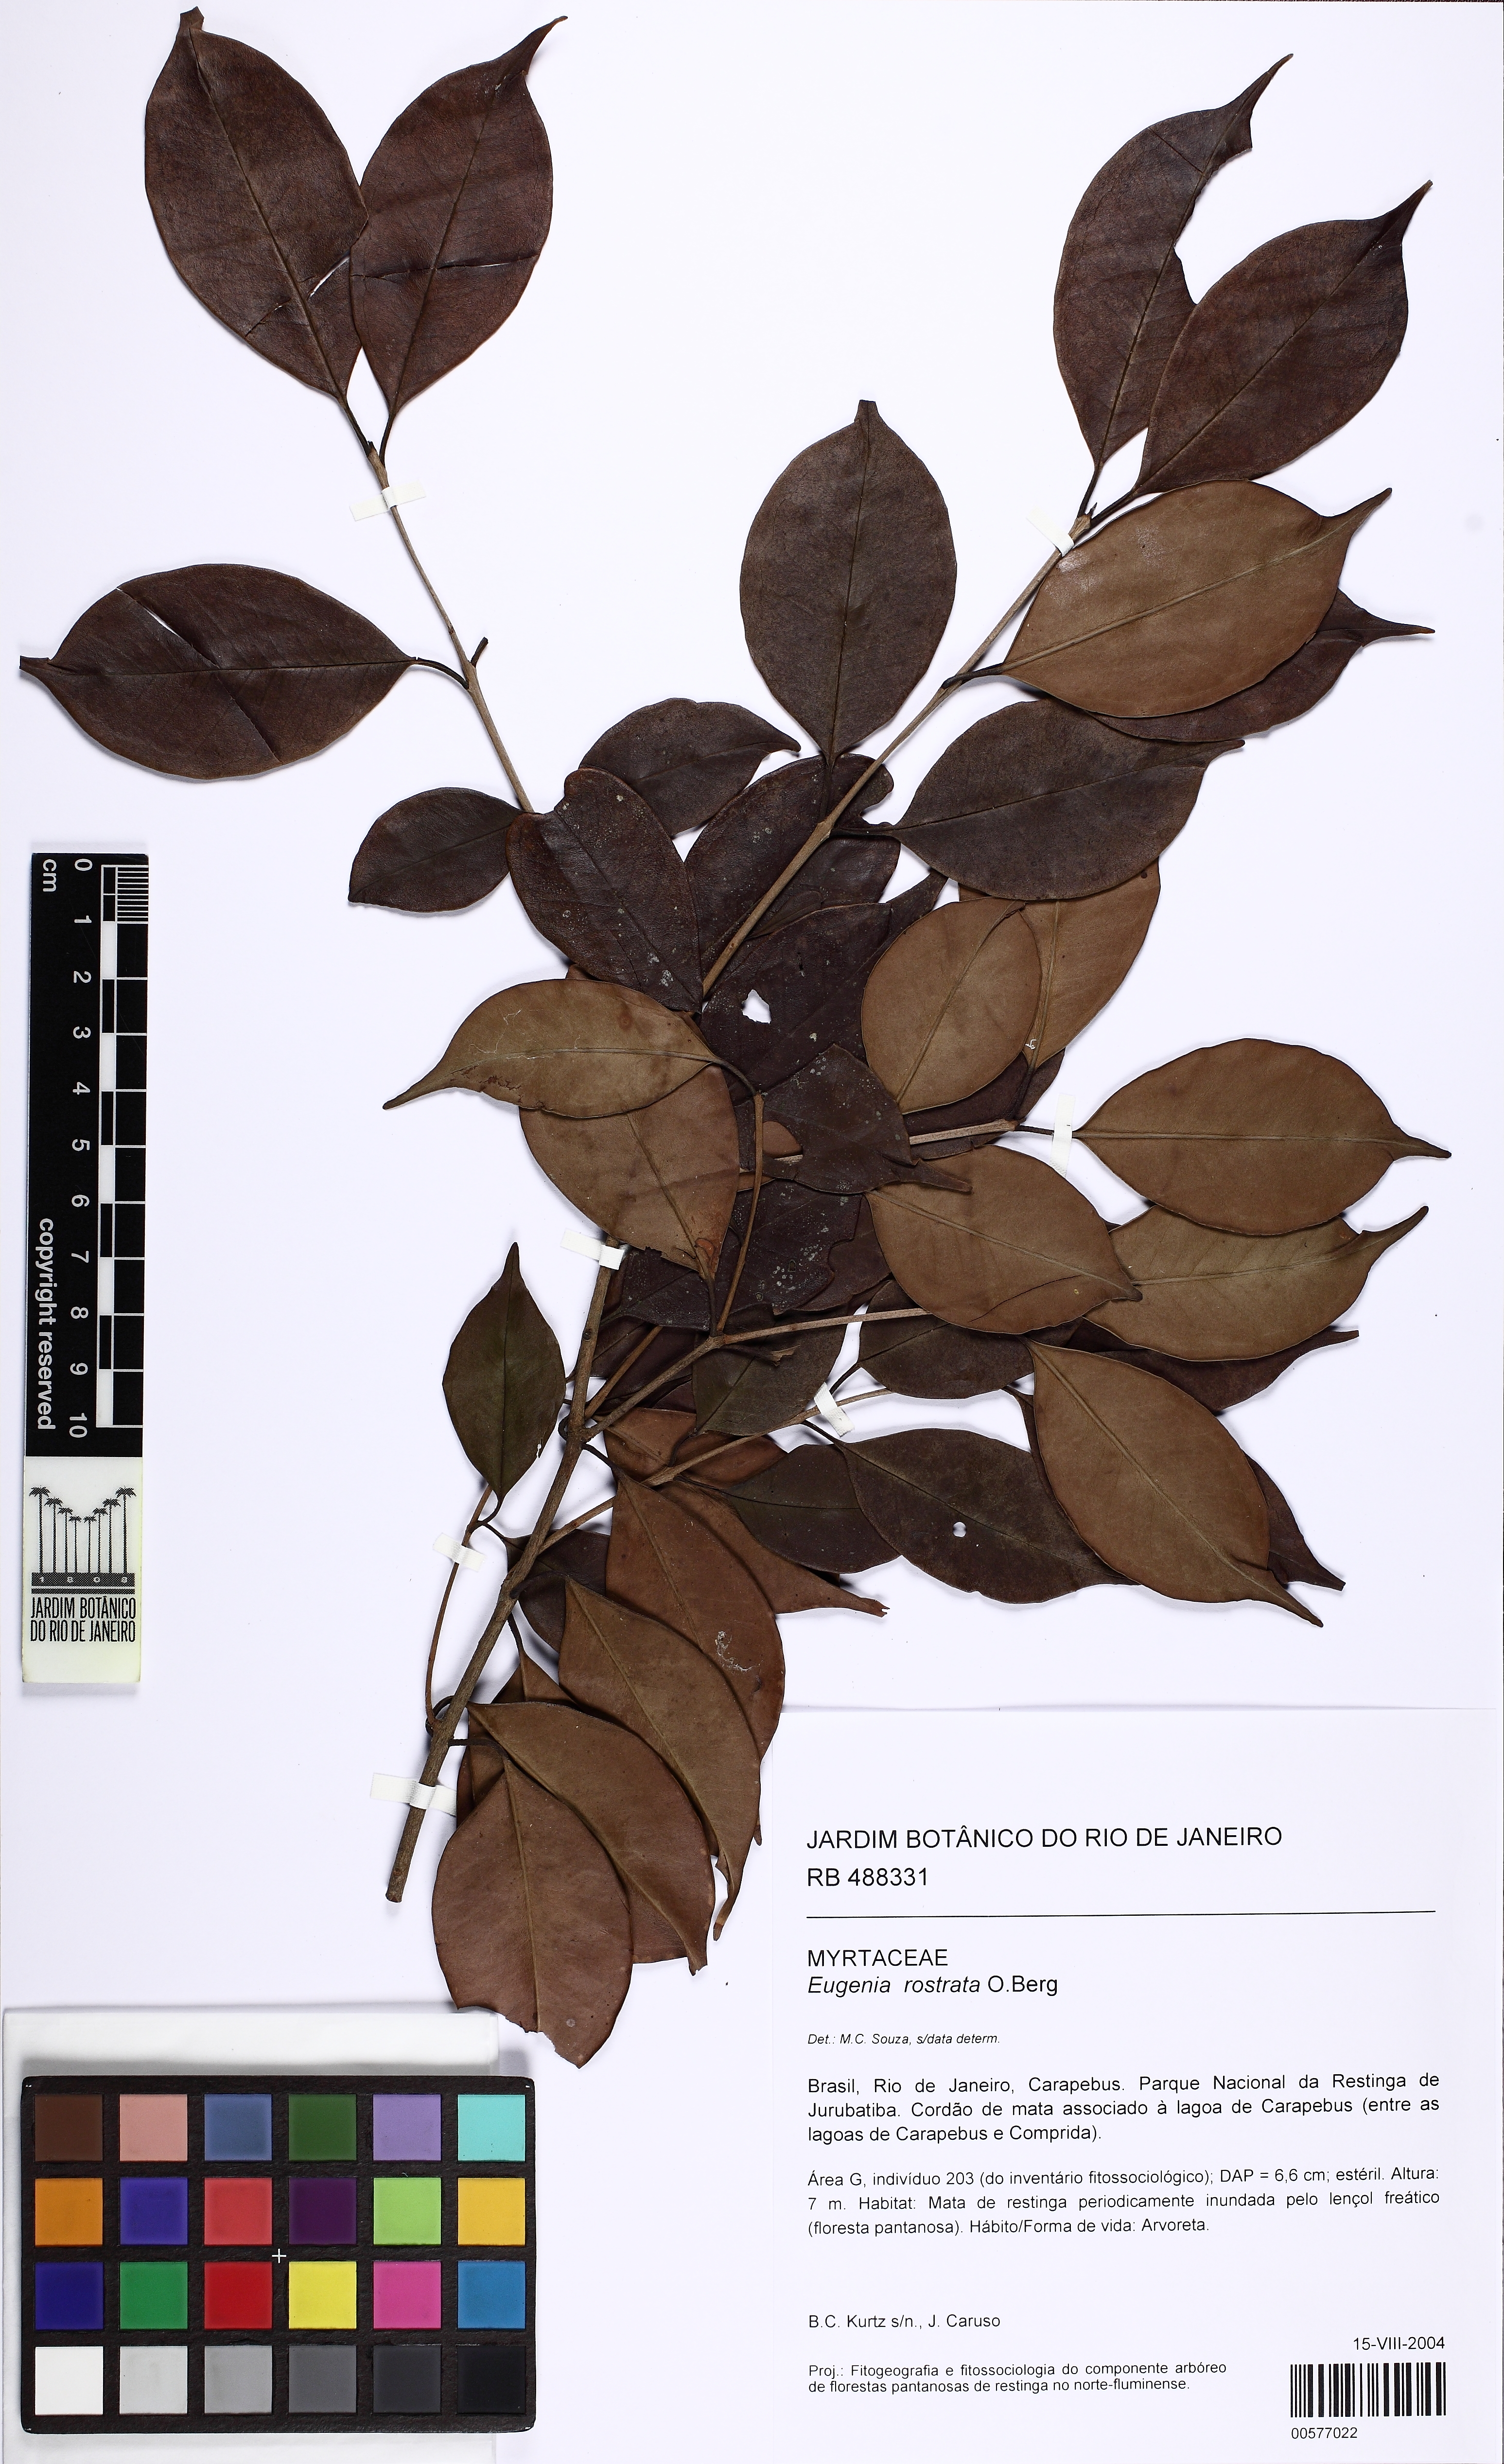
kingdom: Plantae
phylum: Tracheophyta
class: Magnoliopsida
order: Myrtales
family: Myrtaceae
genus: Eugenia
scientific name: Eugenia rostrata
